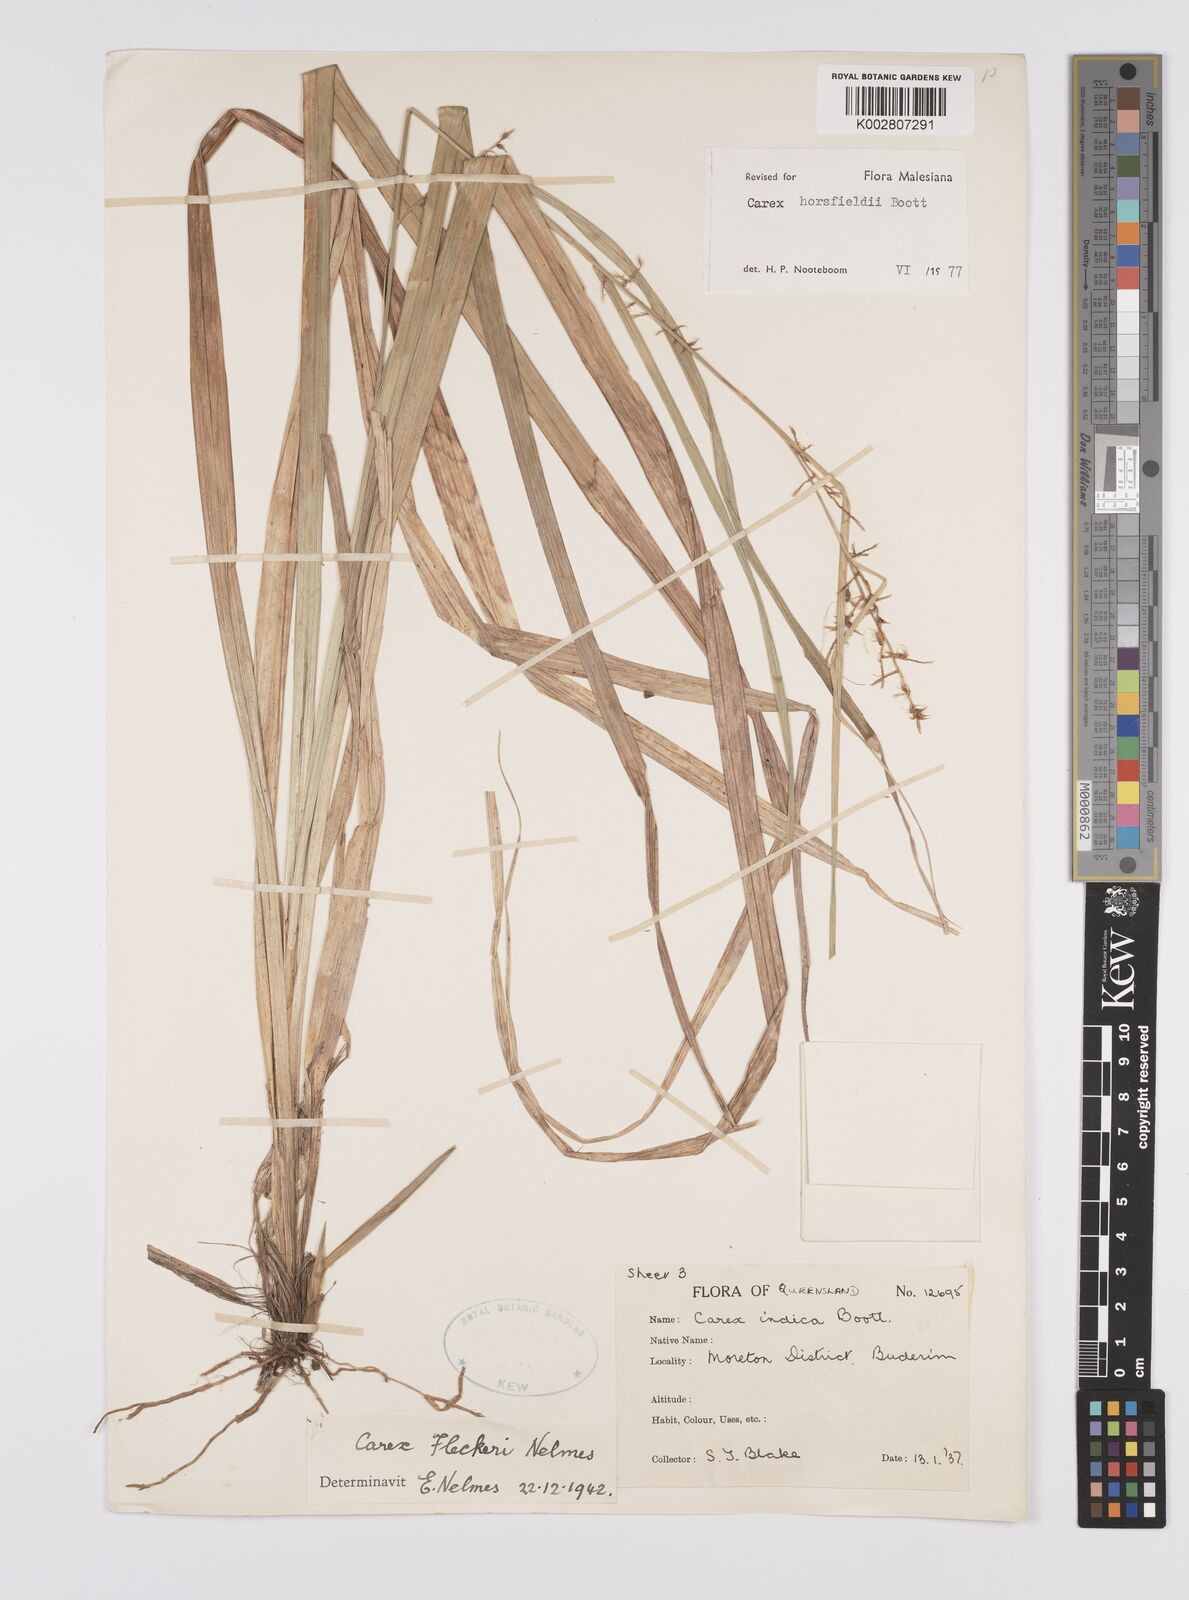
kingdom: Plantae
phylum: Tracheophyta
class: Liliopsida
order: Poales
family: Cyperaceae
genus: Carex
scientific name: Carex horsfieldii
